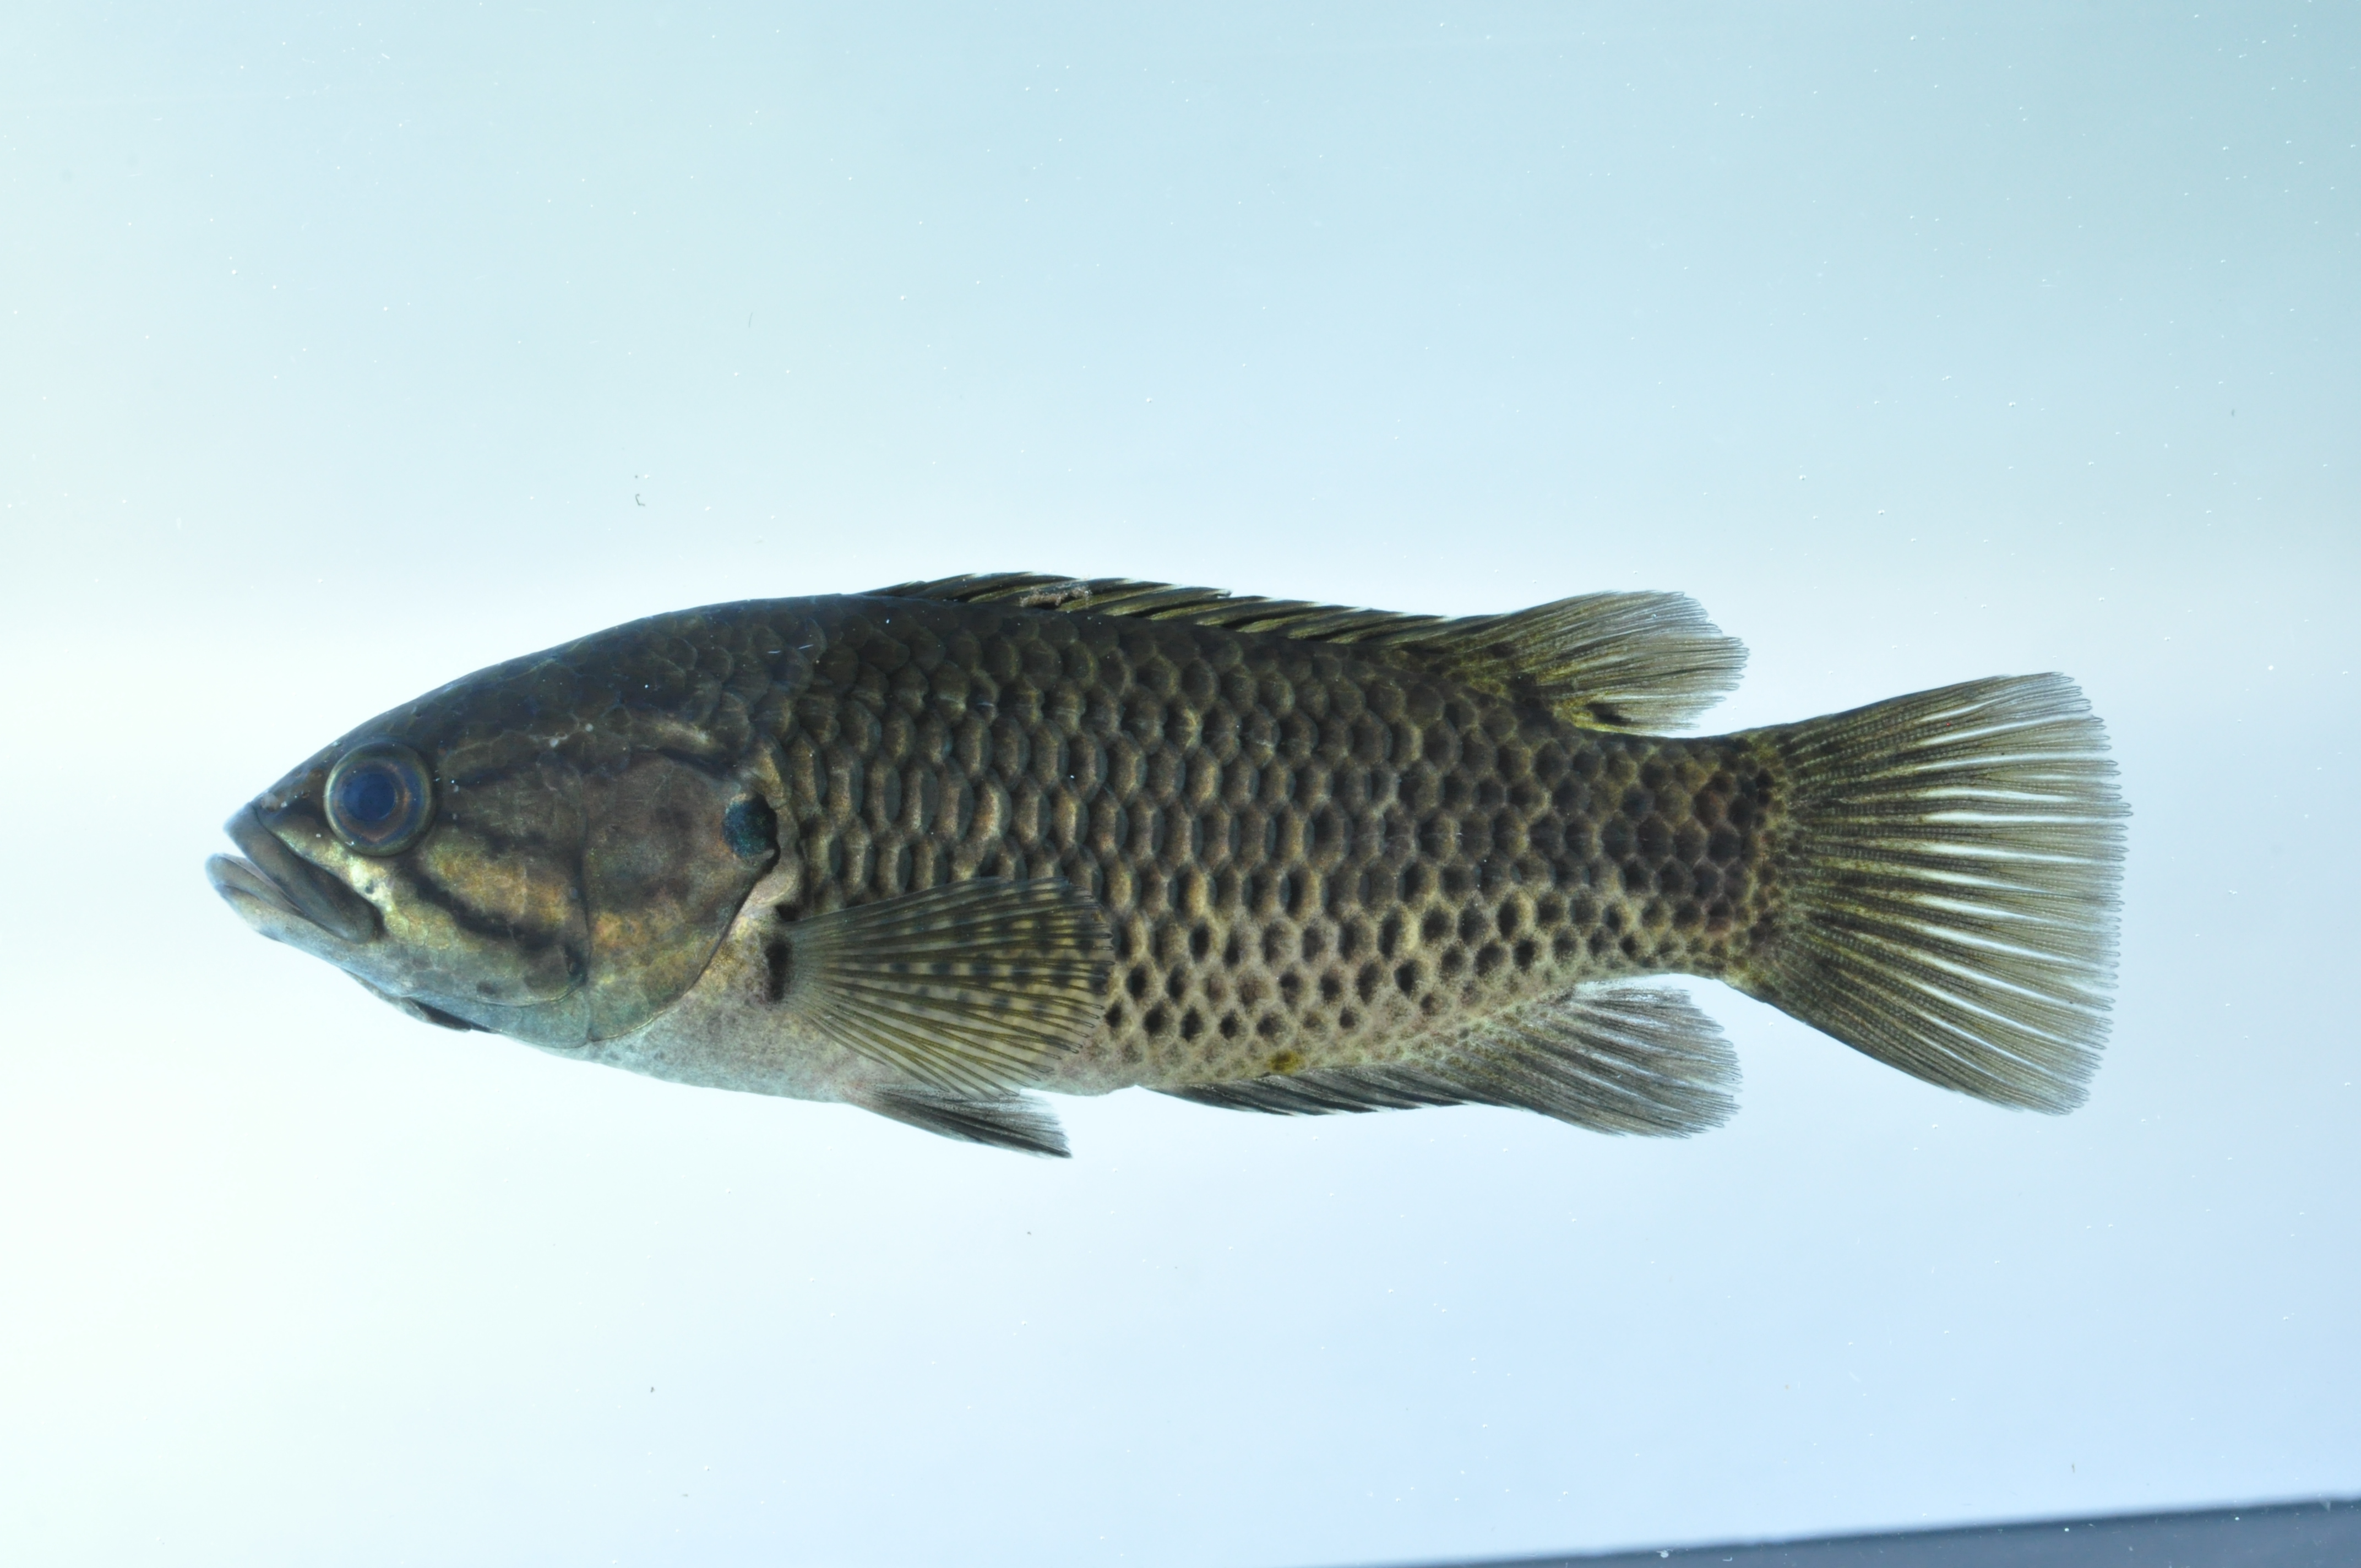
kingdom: Animalia
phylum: Chordata
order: Perciformes
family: Anabantidae
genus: Sandelia
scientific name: Sandelia capensis
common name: Cape kurper
